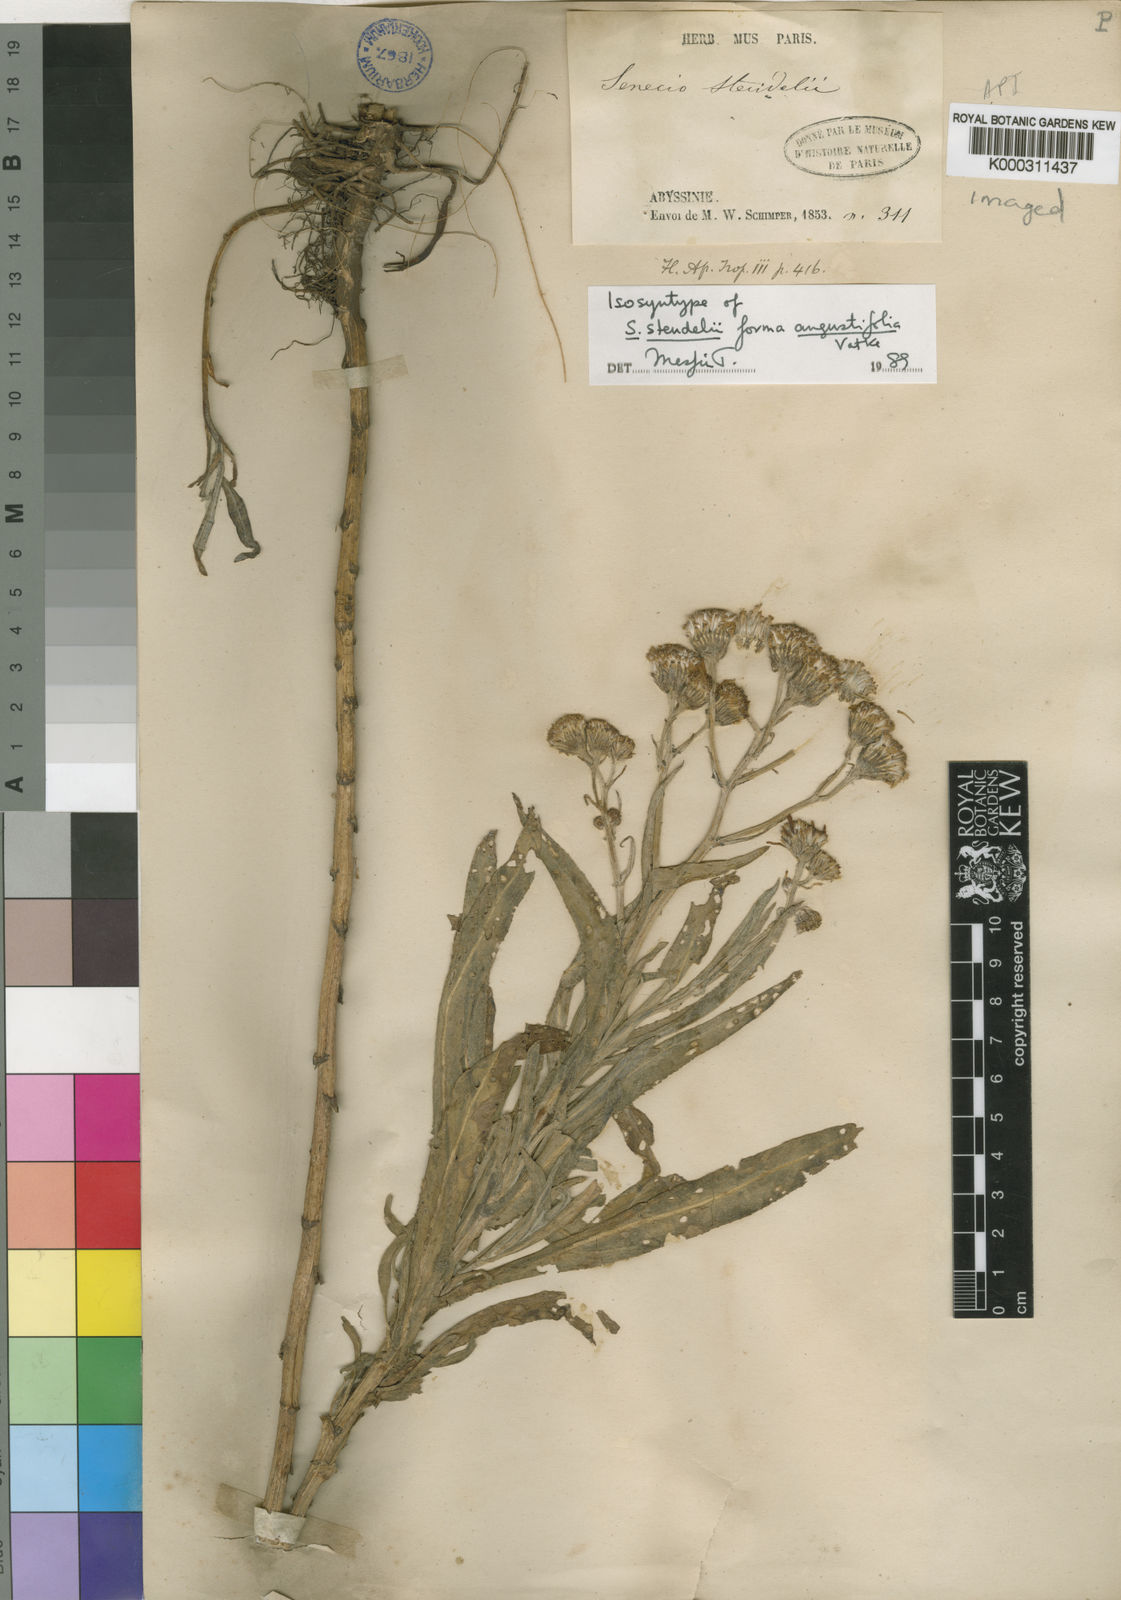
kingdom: Plantae
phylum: Tracheophyta
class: Magnoliopsida
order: Asterales
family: Asteraceae
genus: Senecio
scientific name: Senecio steudelii
